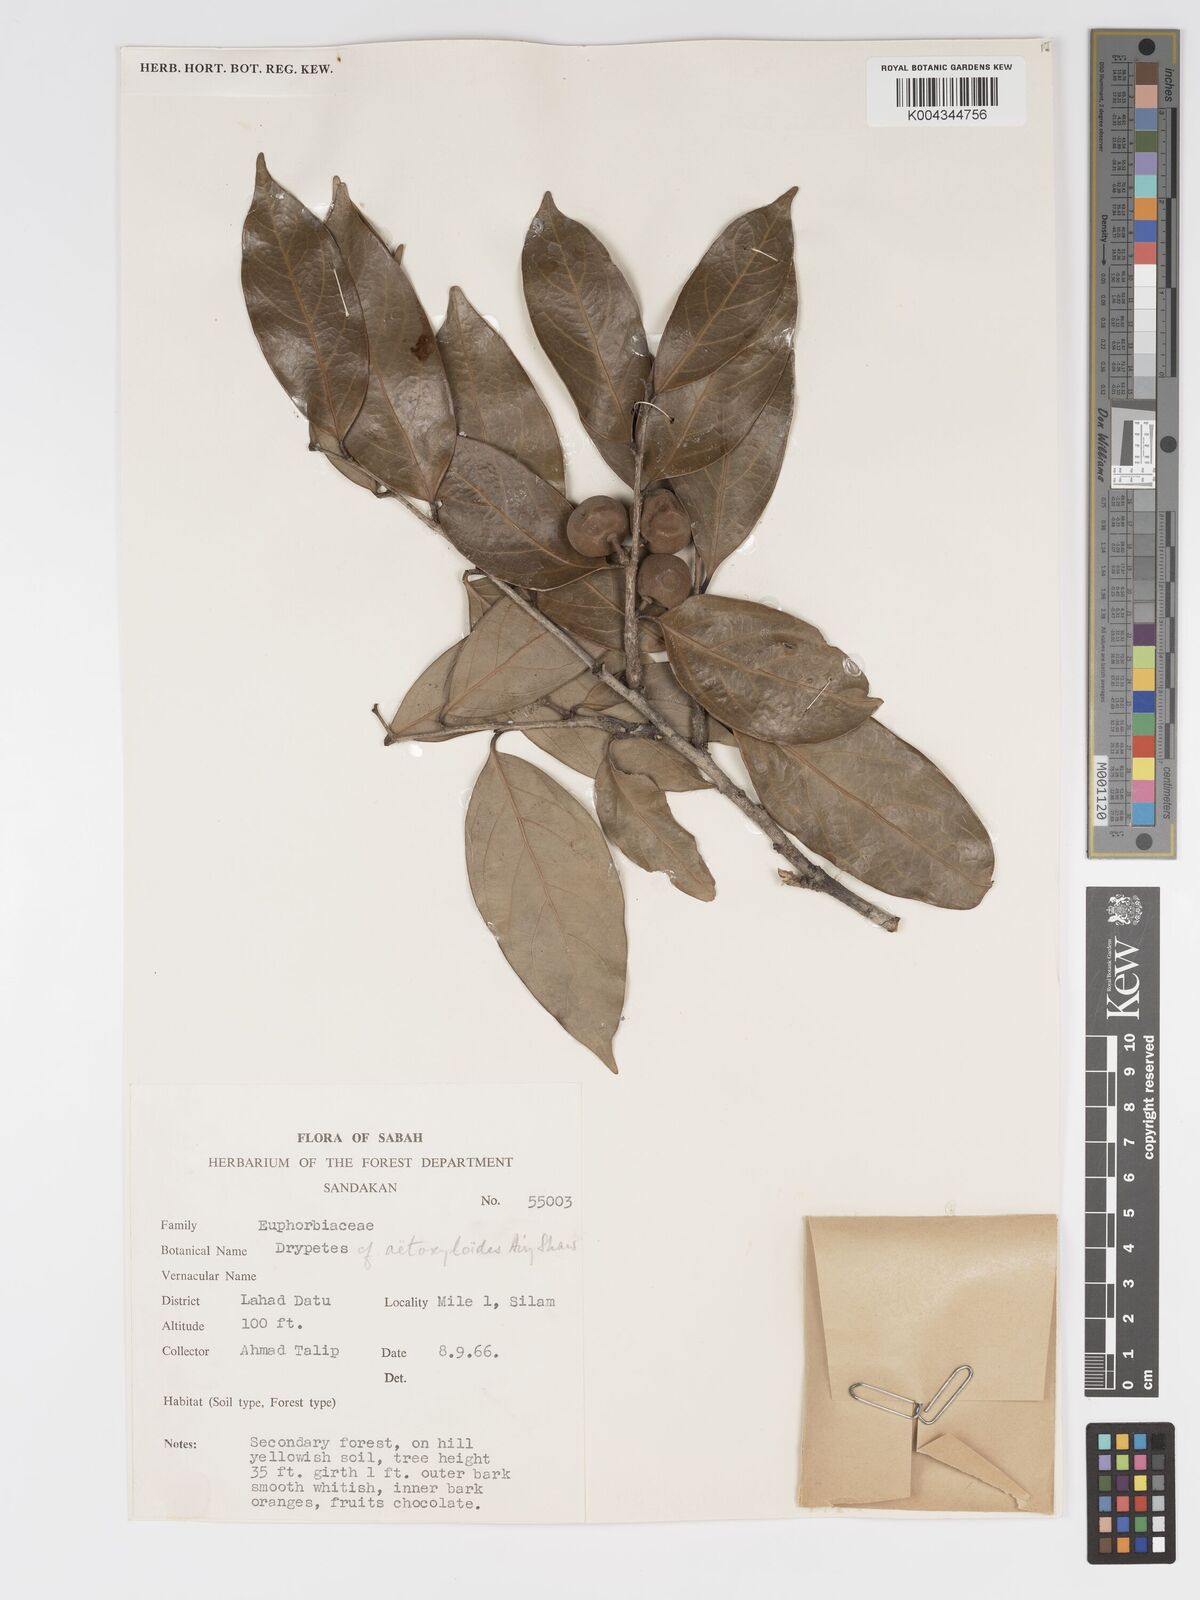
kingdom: Plantae
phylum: Tracheophyta
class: Magnoliopsida
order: Malpighiales
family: Putranjivaceae
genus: Drypetes
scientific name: Drypetes aetoxyloides
